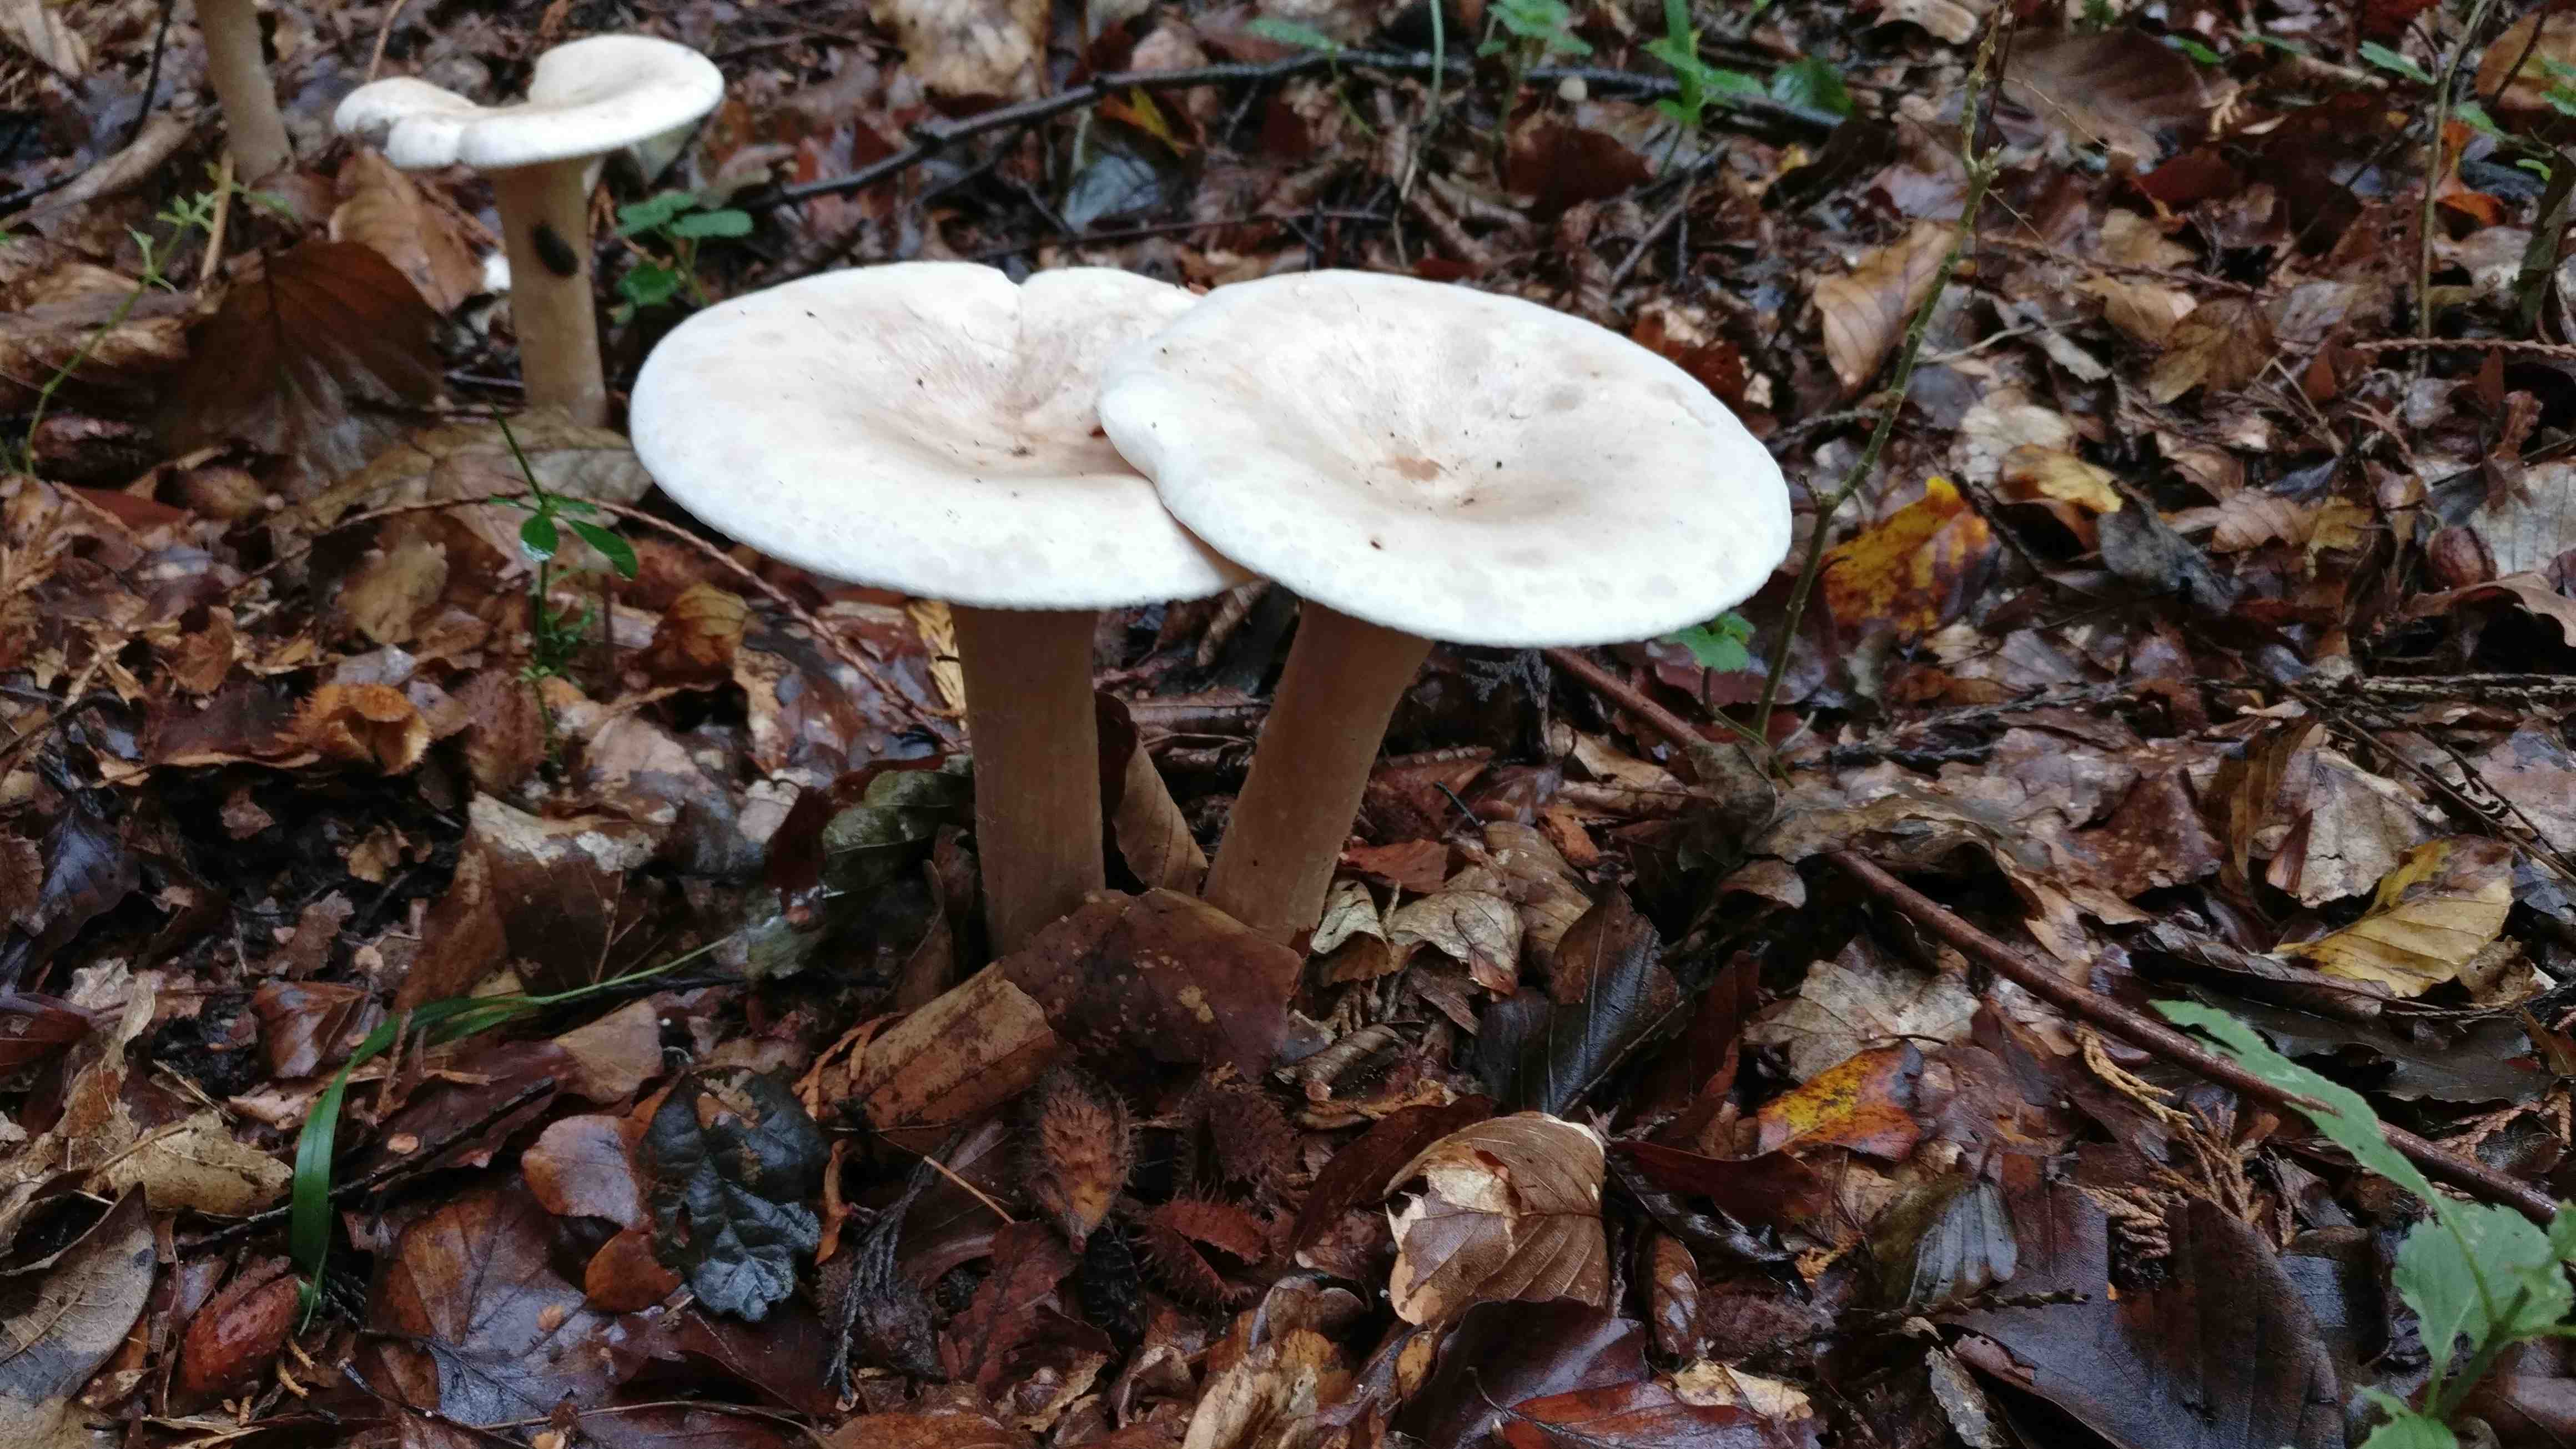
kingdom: Fungi
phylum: Basidiomycota
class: Agaricomycetes
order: Agaricales
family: Tricholomataceae
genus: Infundibulicybe
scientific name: Infundibulicybe geotropa
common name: stor tragthat
